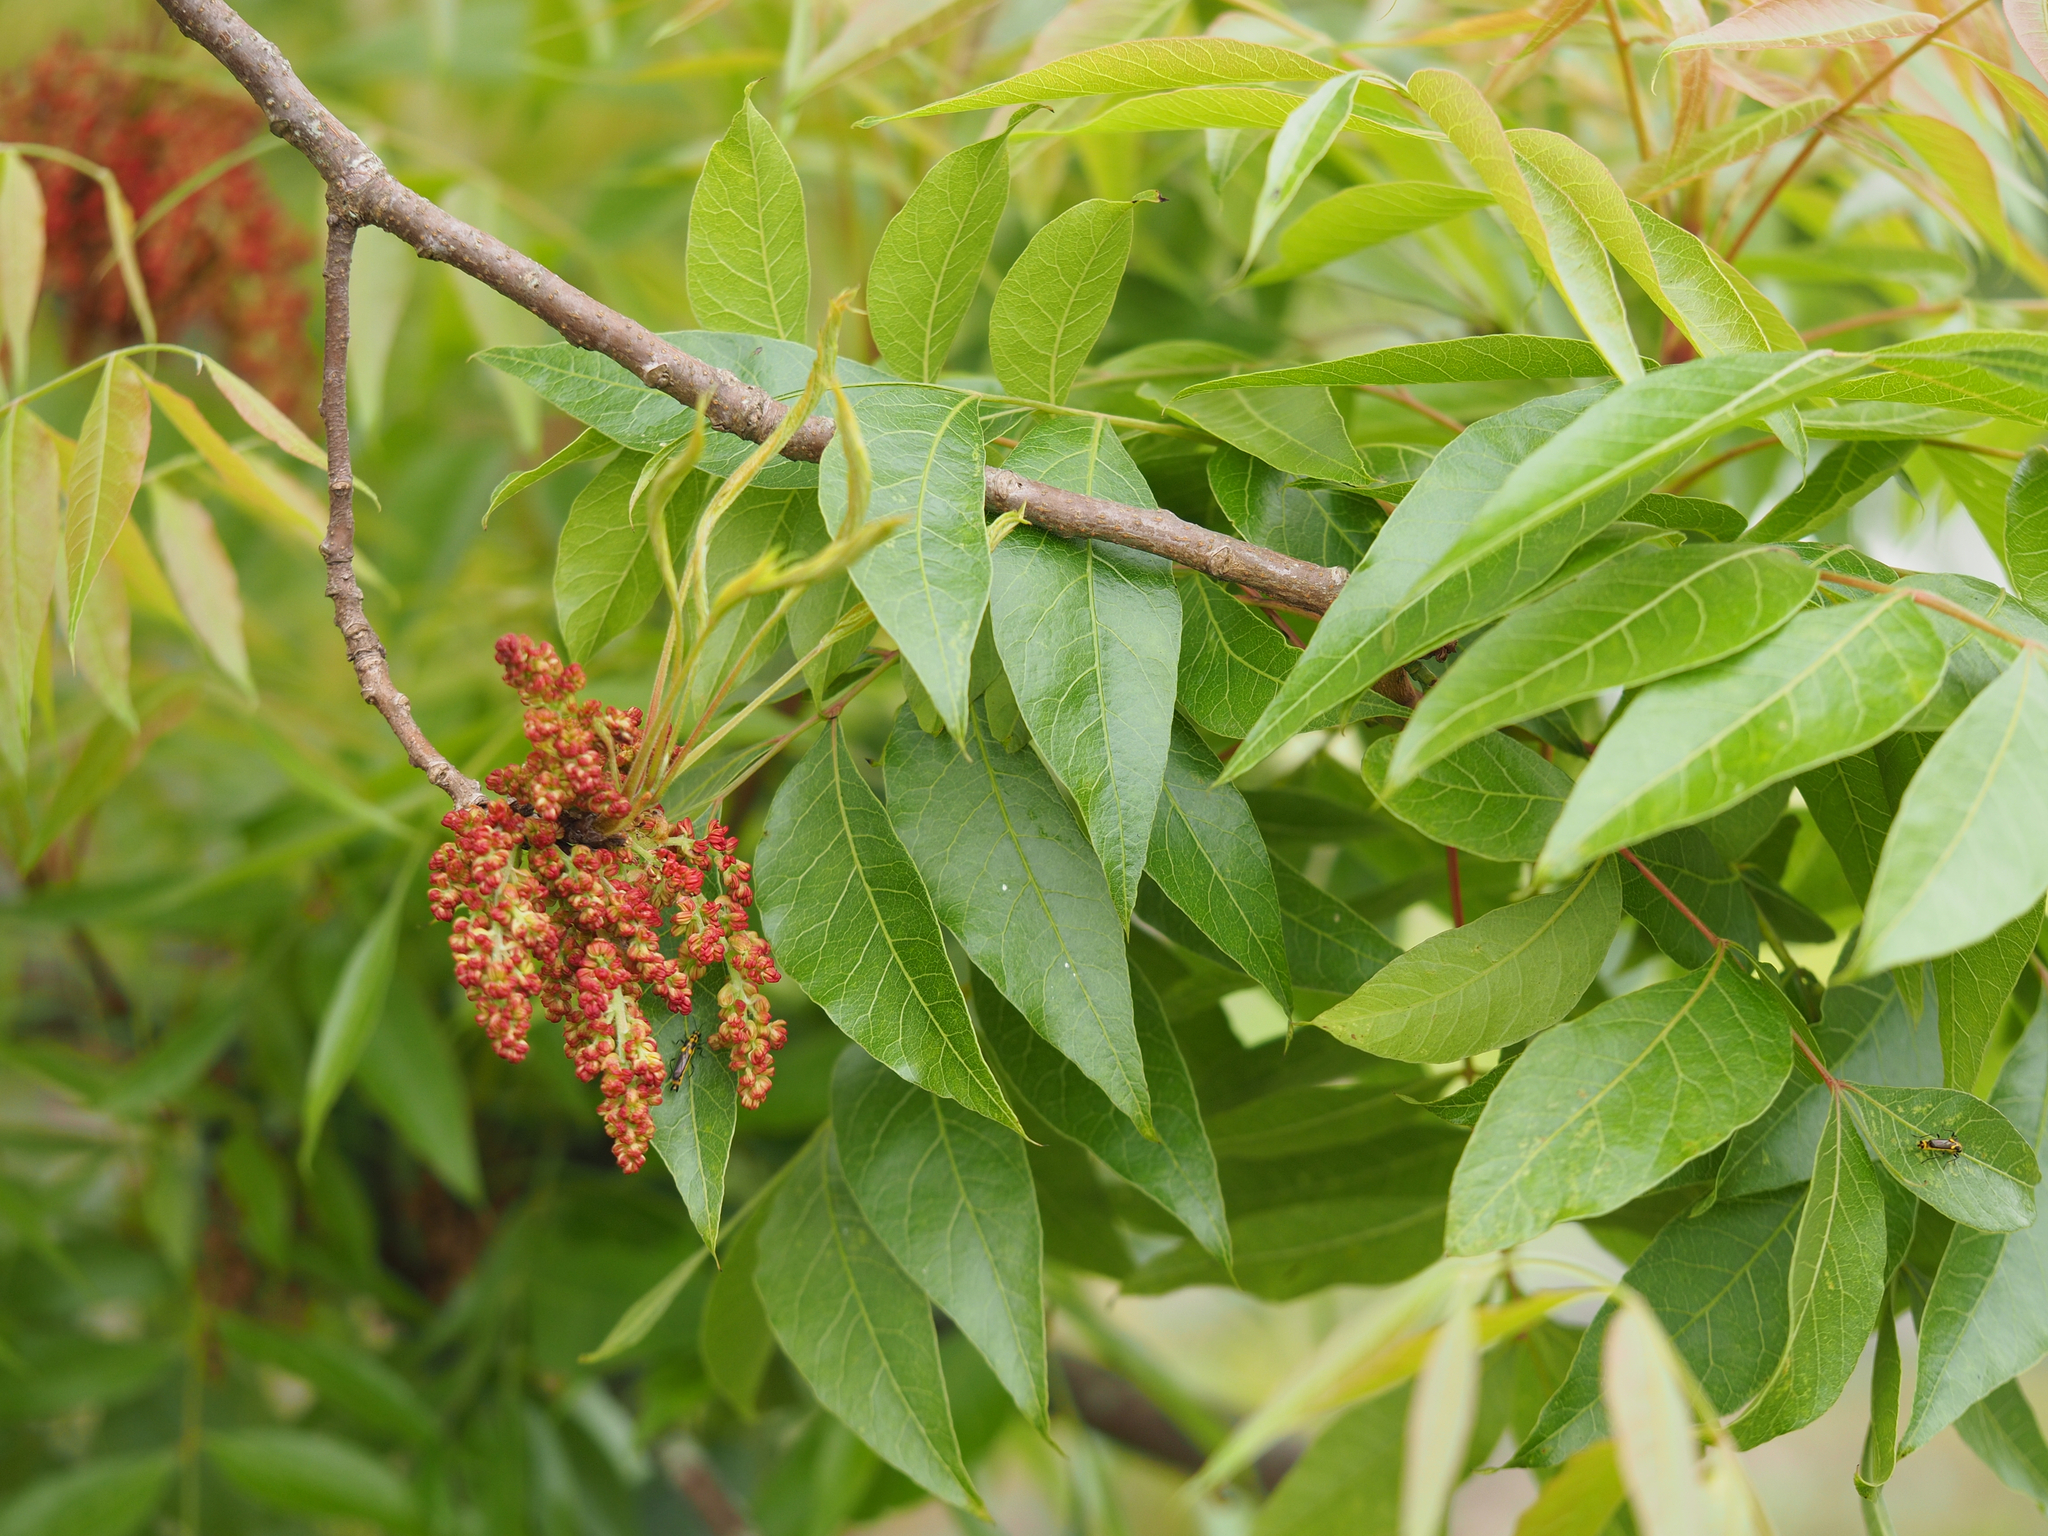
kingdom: Plantae
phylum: Tracheophyta
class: Magnoliopsida
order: Sapindales
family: Anacardiaceae
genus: Pistacia
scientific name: Pistacia chinensis
